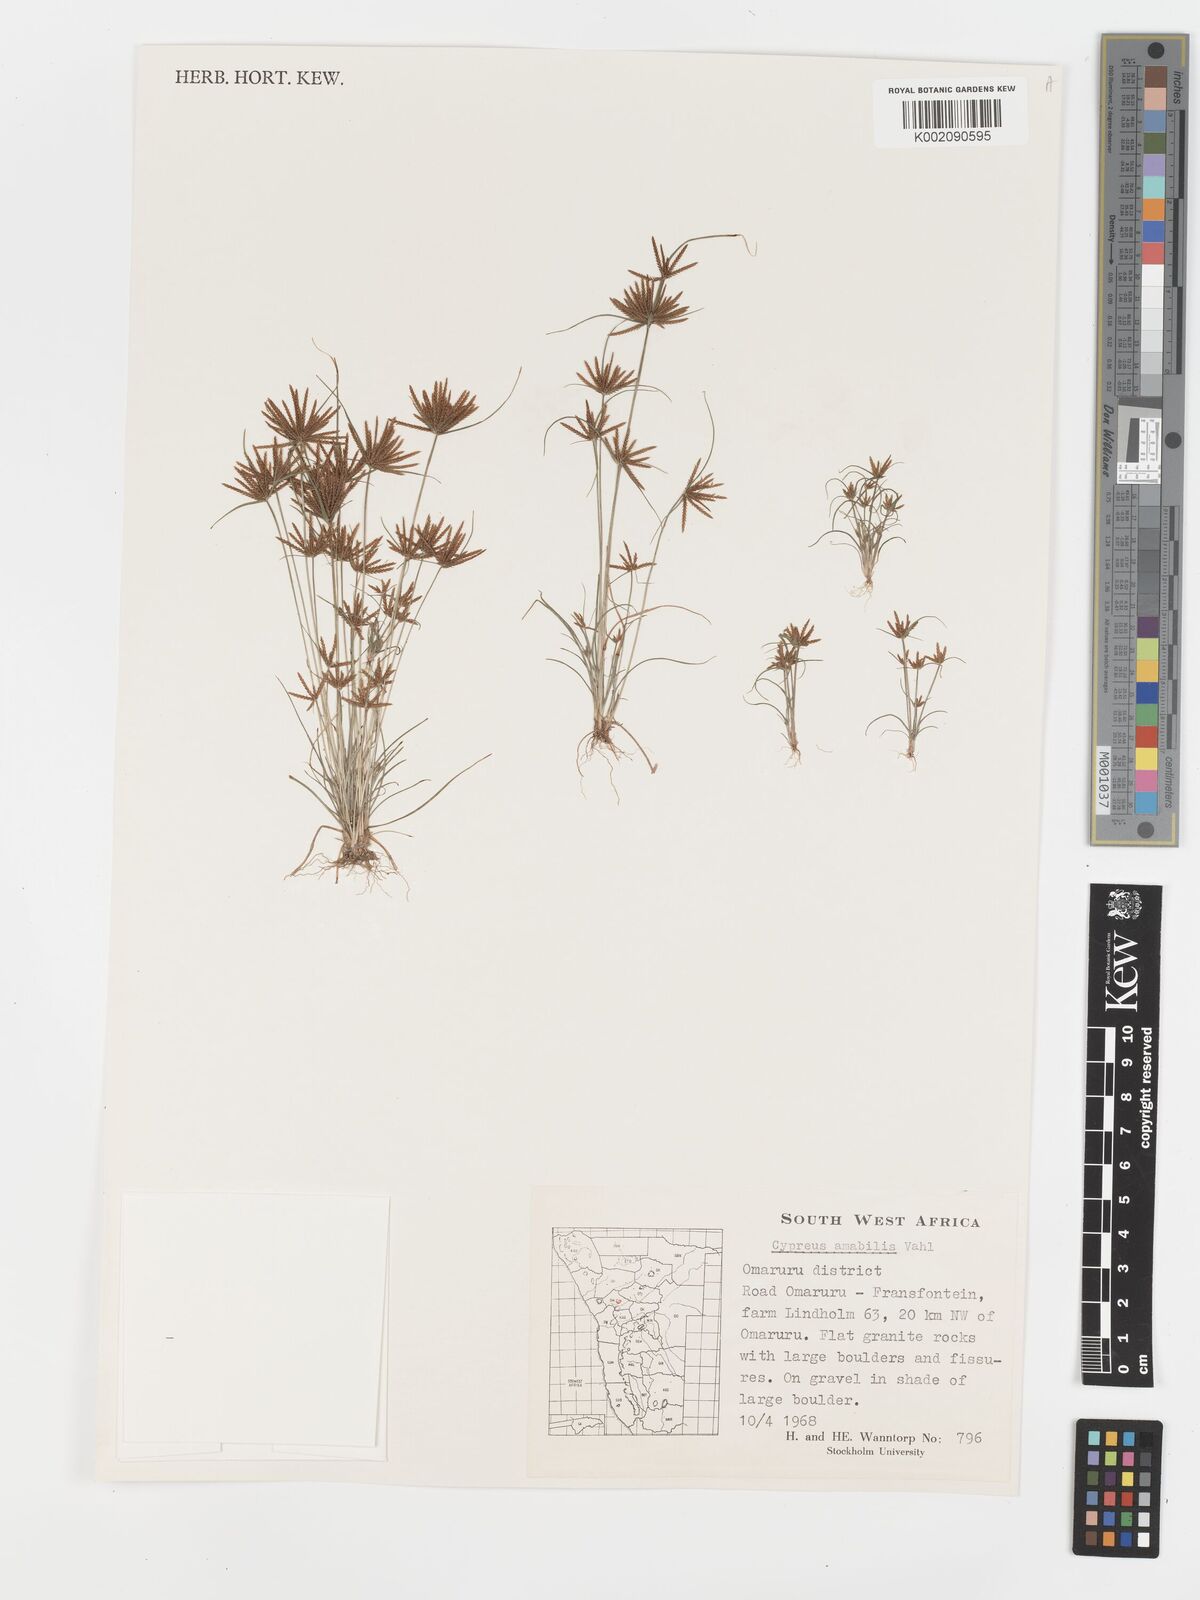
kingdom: Plantae
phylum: Tracheophyta
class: Liliopsida
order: Poales
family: Cyperaceae
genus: Cyperus
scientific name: Cyperus amabilis
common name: Foothill flat sedge
